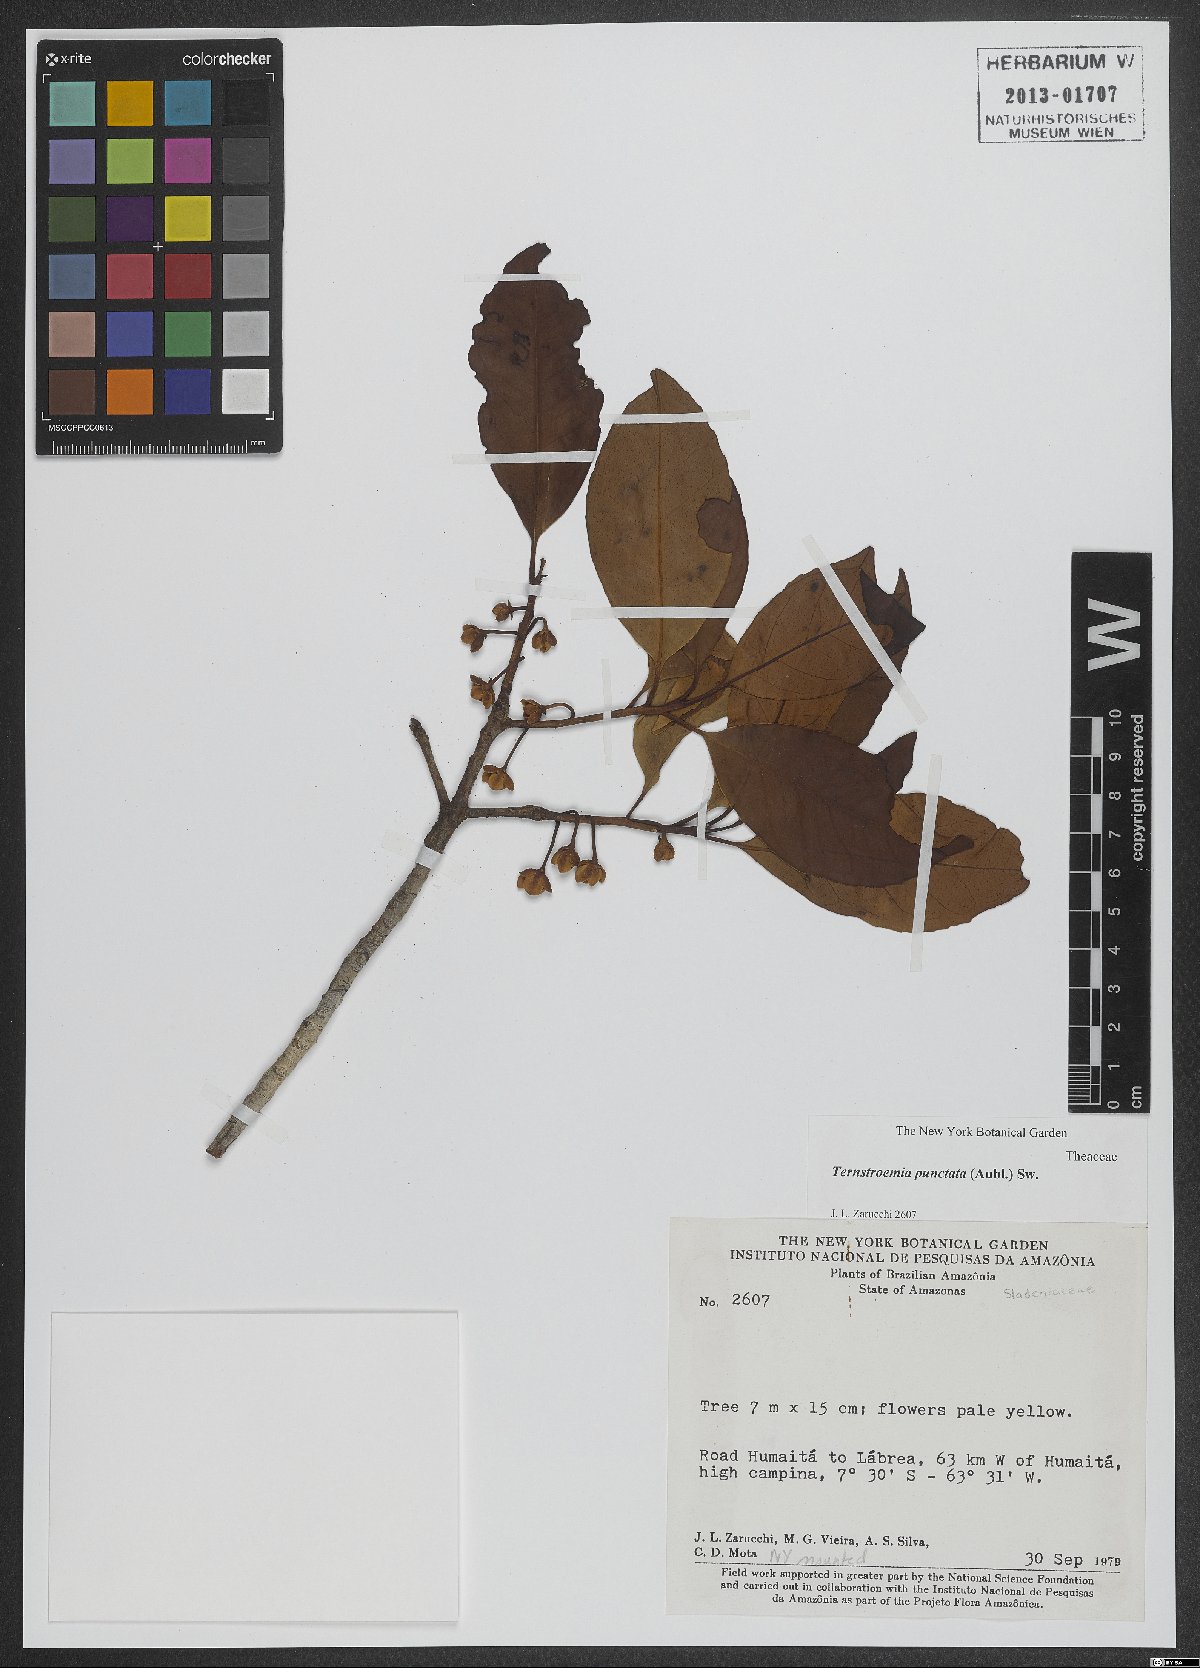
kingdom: Plantae
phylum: Tracheophyta
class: Magnoliopsida
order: Ericales
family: Pentaphylacaceae
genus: Ternstroemia
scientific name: Ternstroemia punctata
